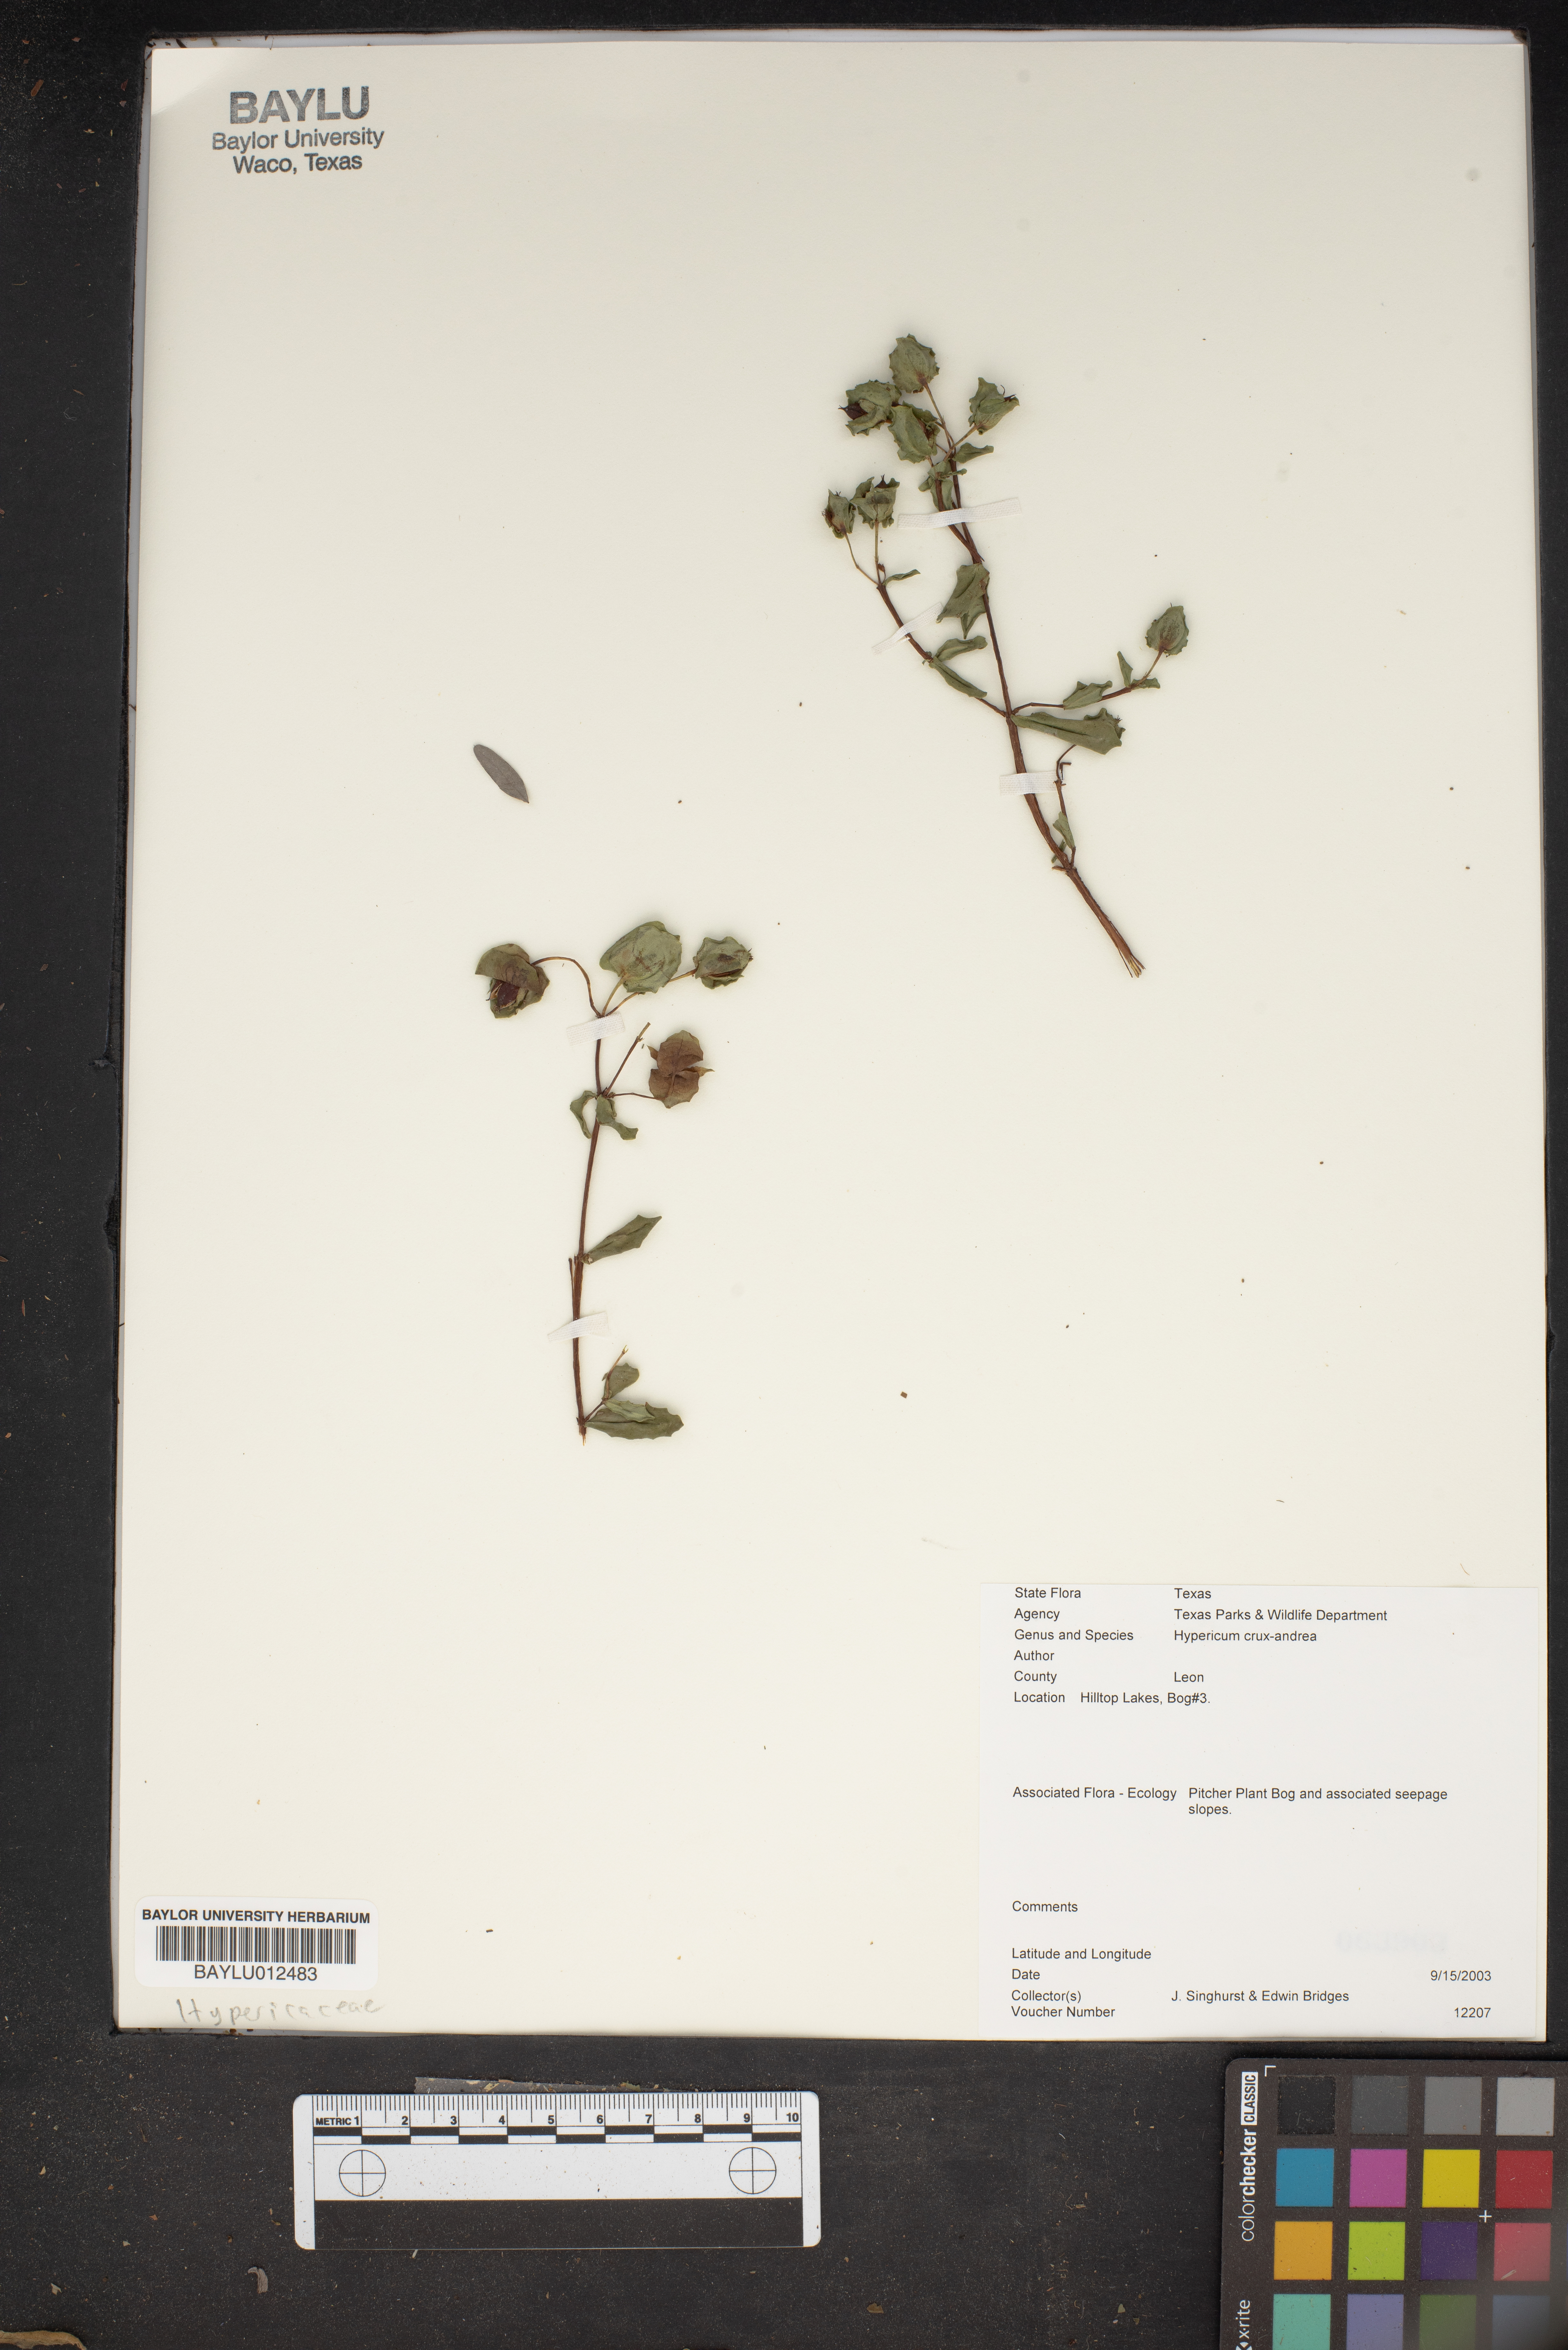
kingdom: Plantae
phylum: Tracheophyta
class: Magnoliopsida
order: Malpighiales
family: Hypericaceae
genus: Hypericum
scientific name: Hypericum crux-andreae
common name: St.-peter's-wort
